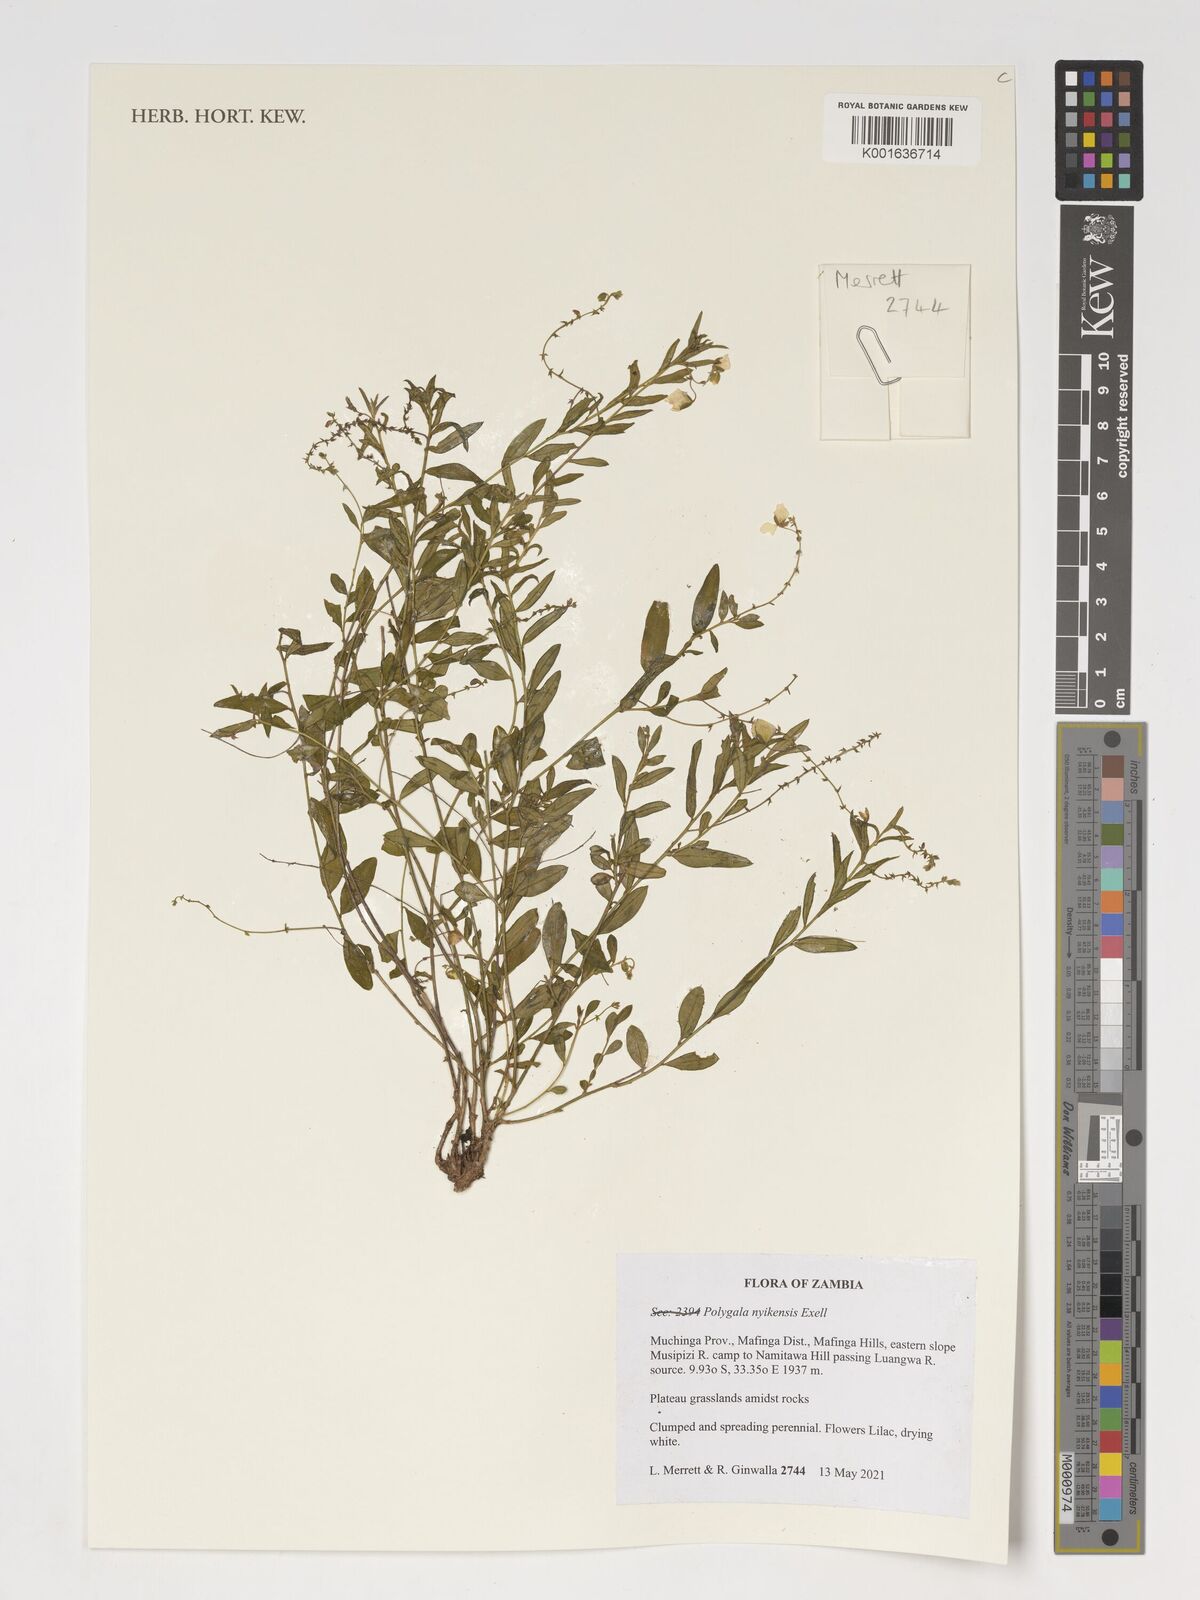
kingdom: Plantae
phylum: Tracheophyta
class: Magnoliopsida
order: Fabales
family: Polygalaceae
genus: Polygala
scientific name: Polygala nyikensis
